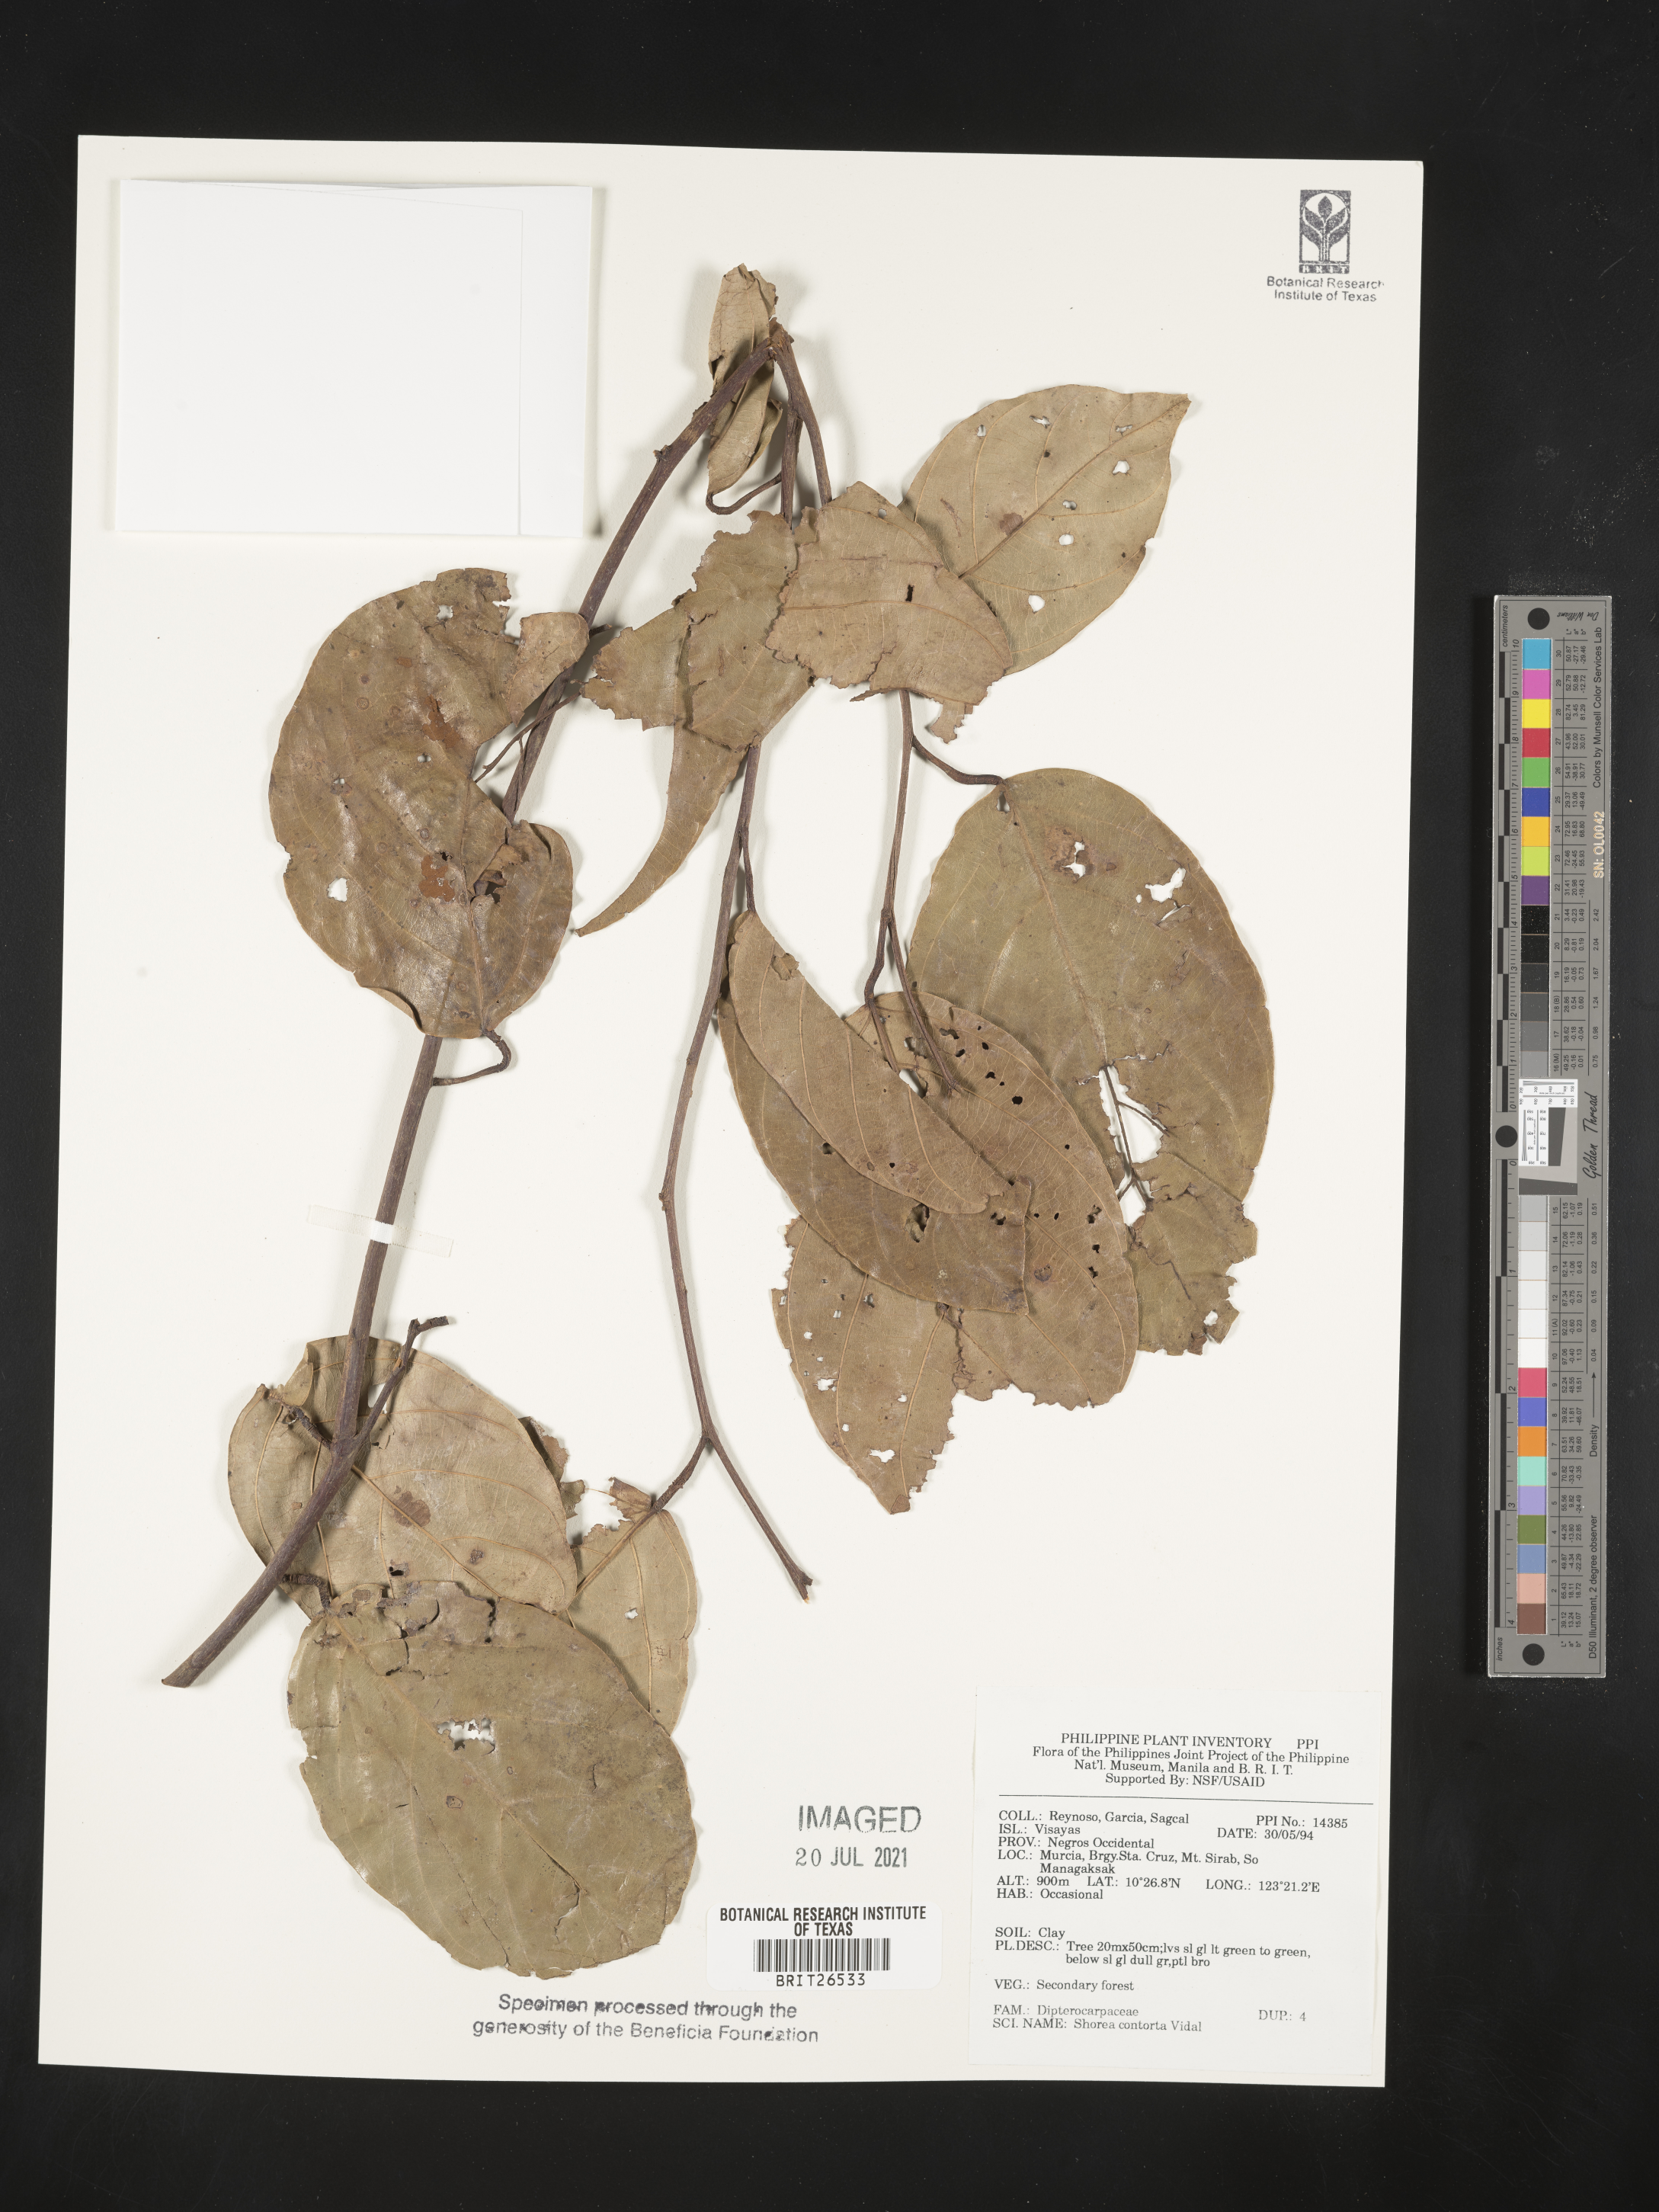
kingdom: Plantae
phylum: Tracheophyta
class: Magnoliopsida
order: Malvales
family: Dipterocarpaceae
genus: Pentacme
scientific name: Pentacme contorta
